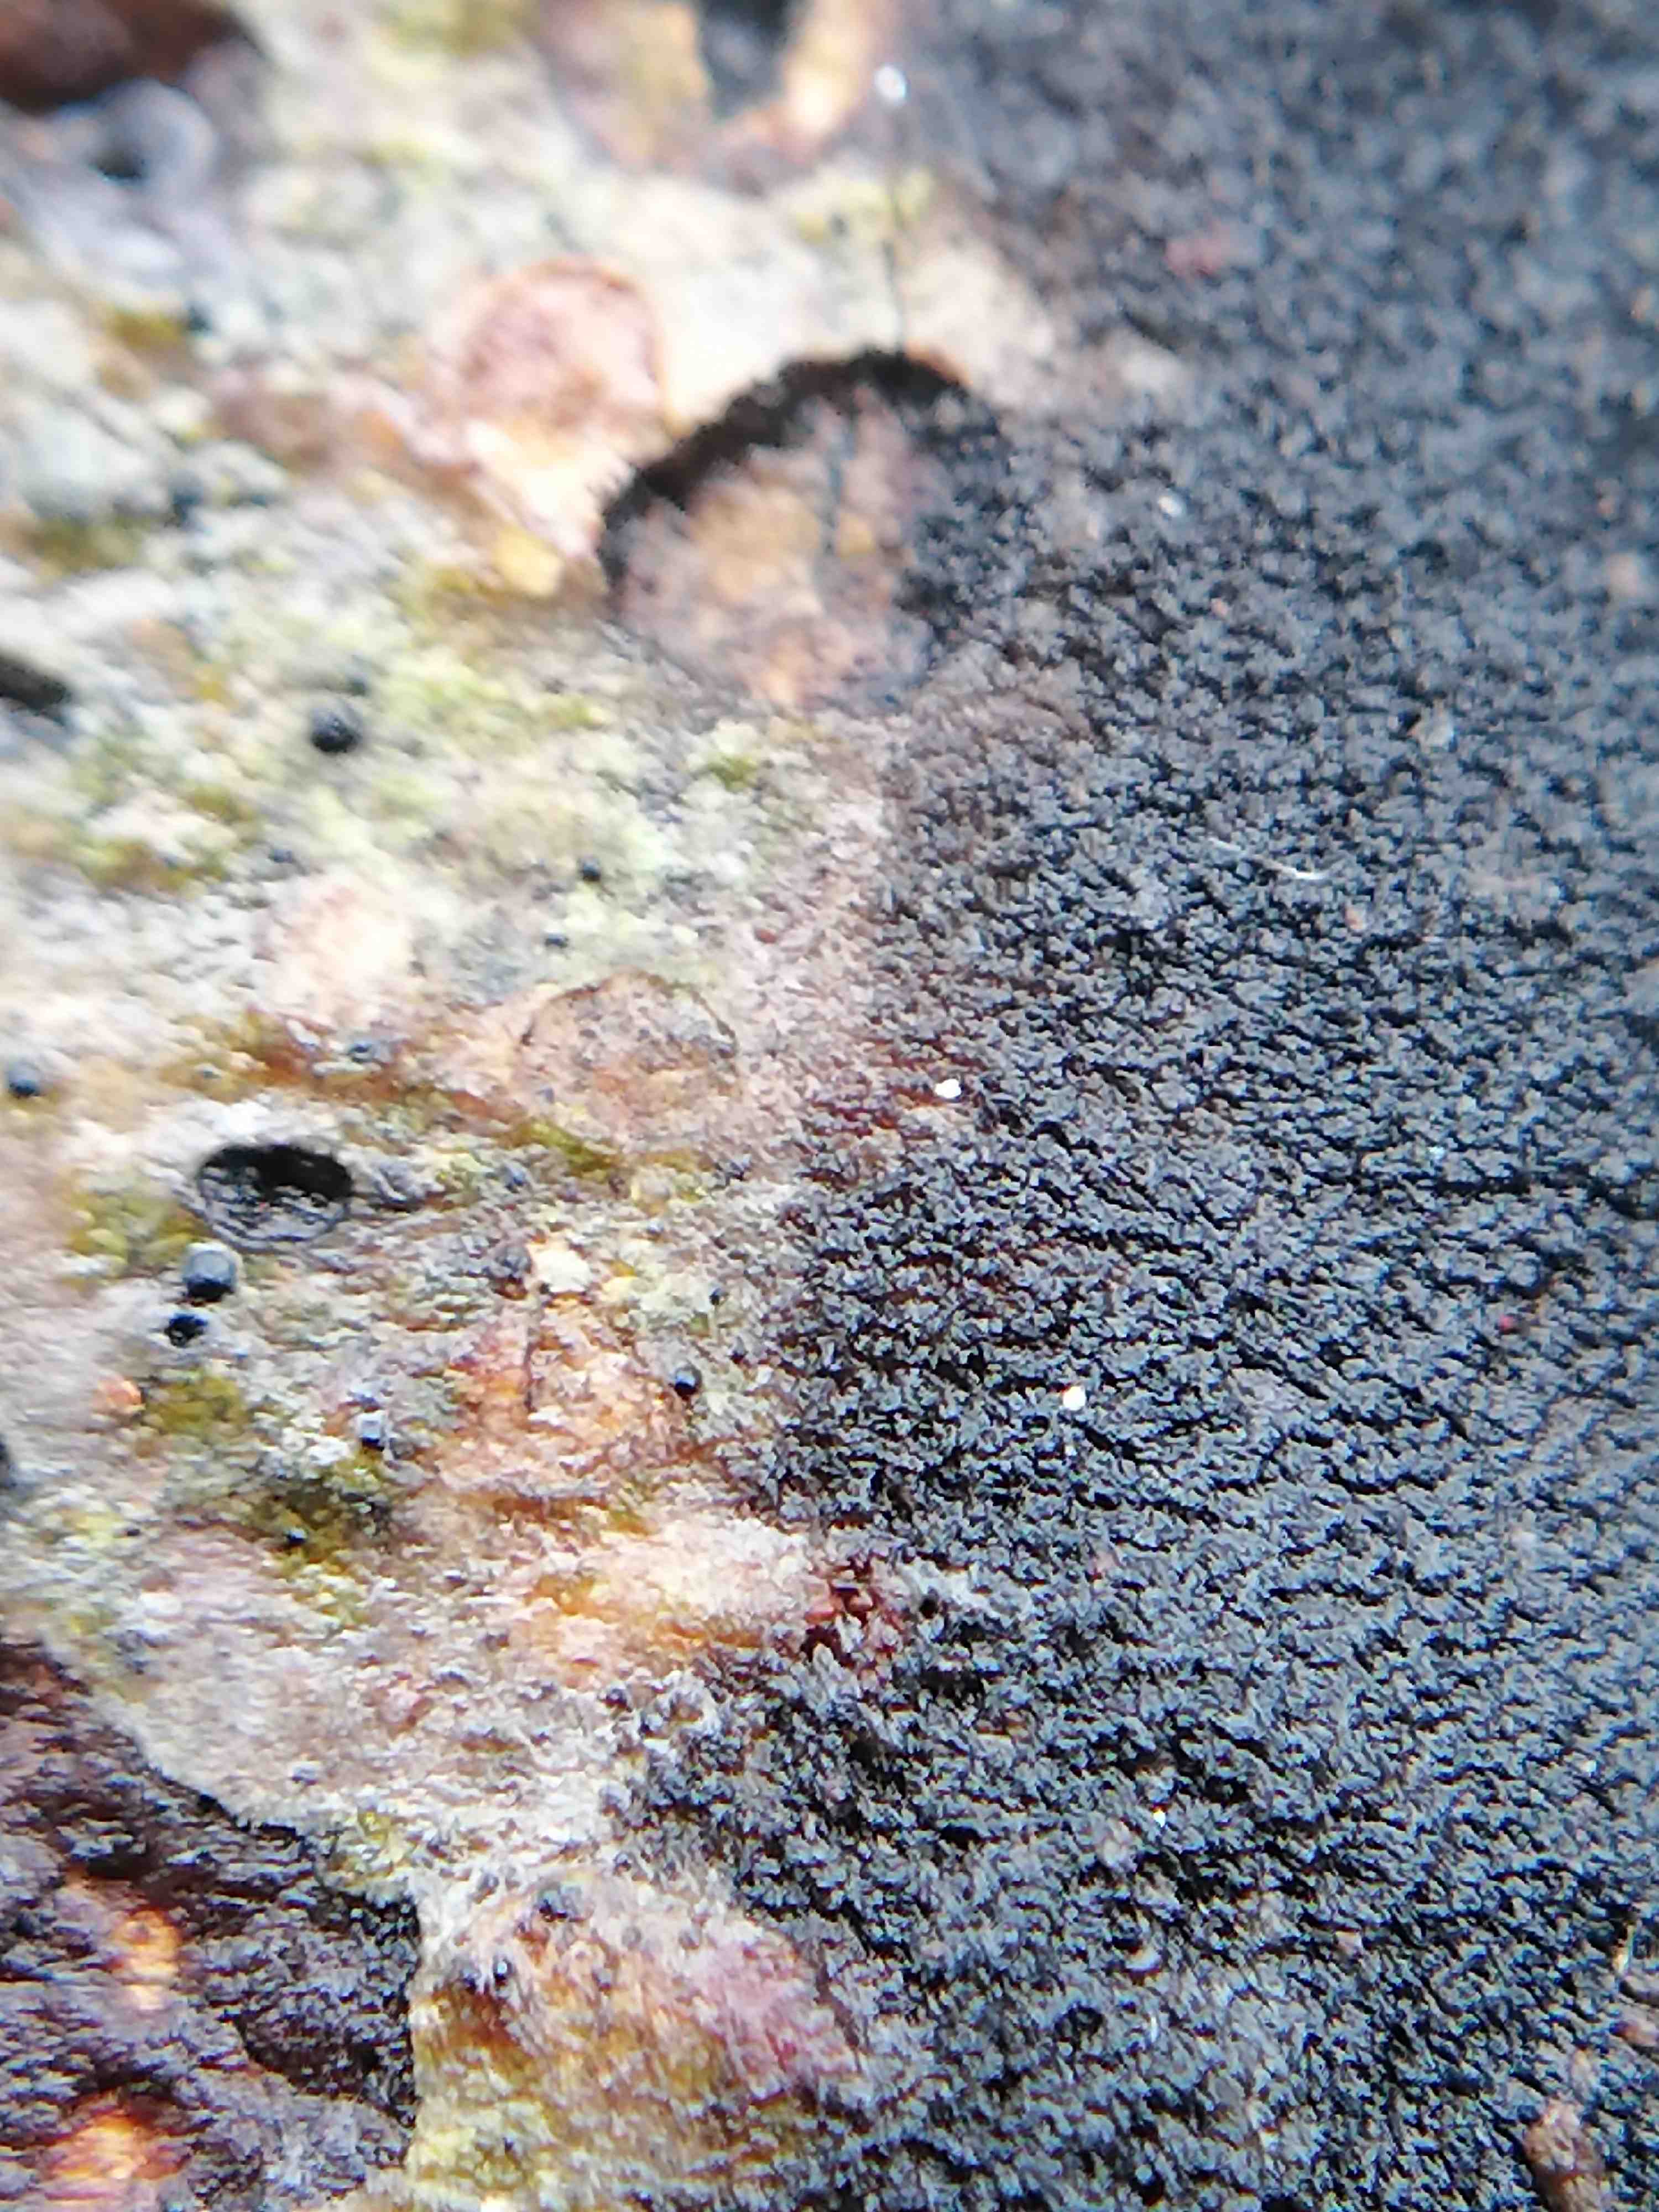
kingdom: Fungi
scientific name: Fungi
